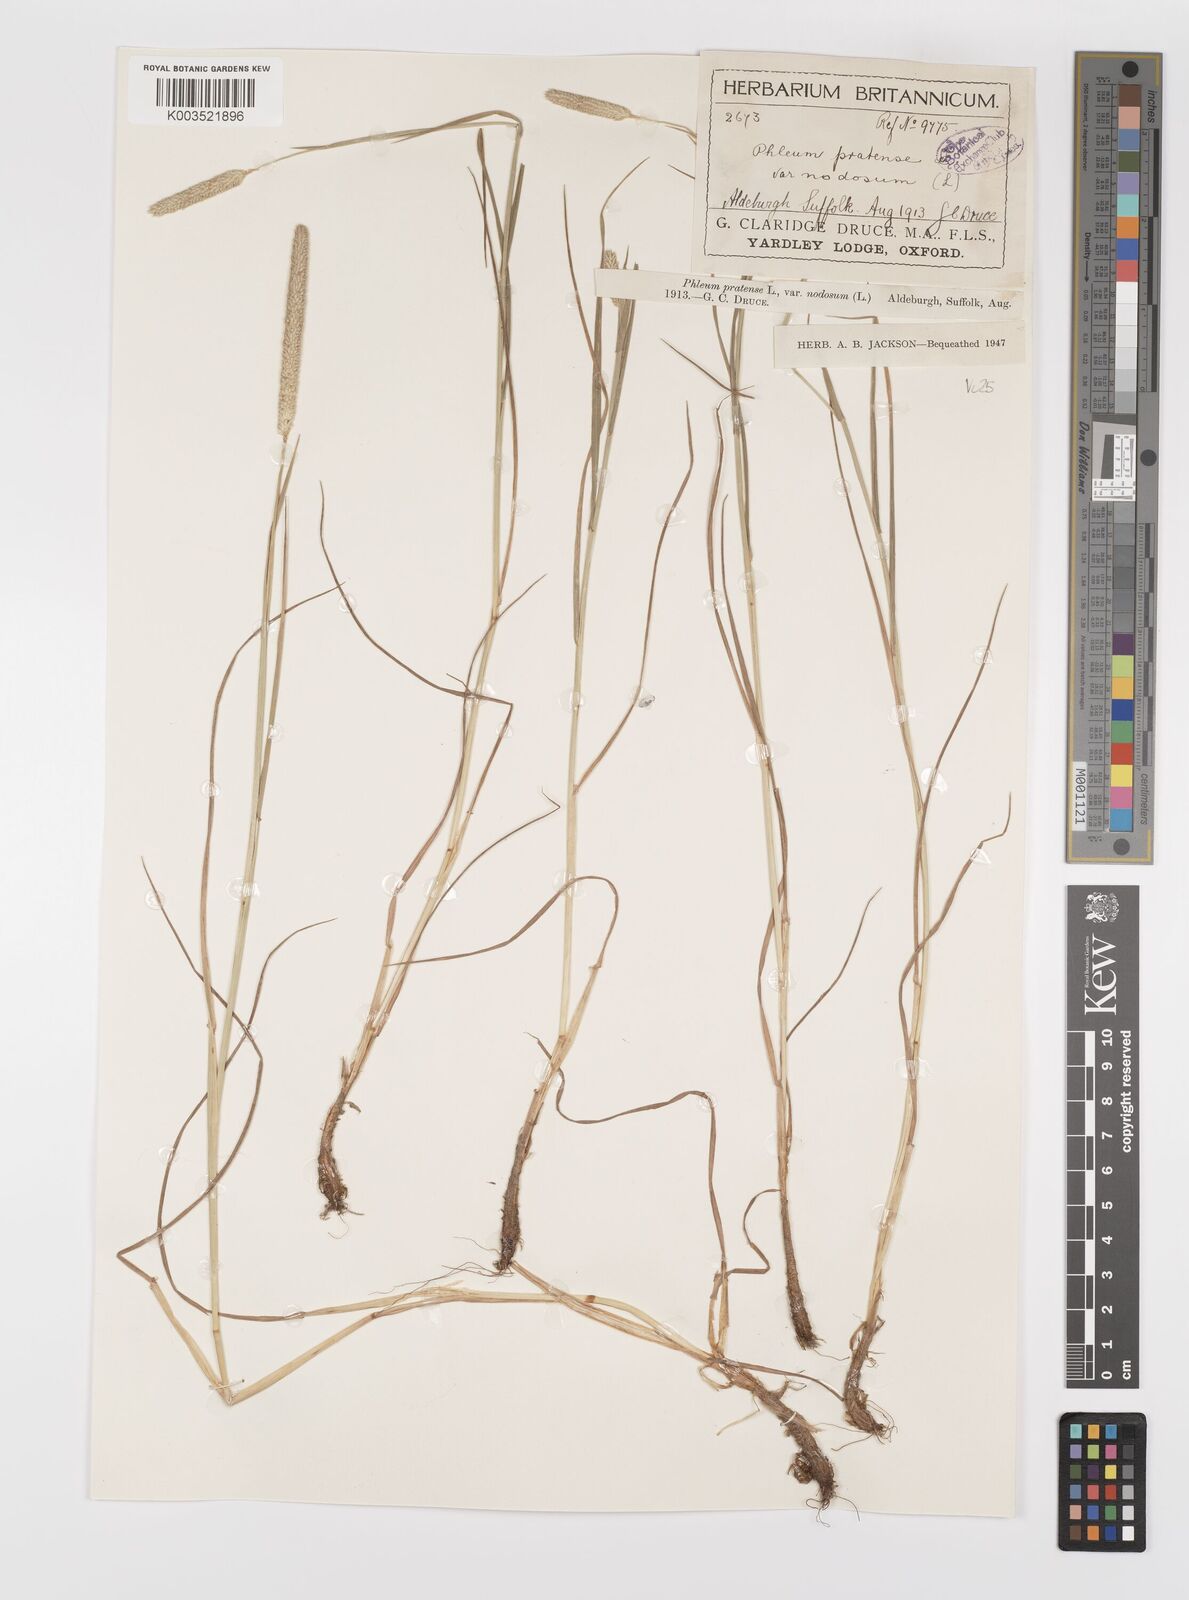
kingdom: Plantae
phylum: Tracheophyta
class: Liliopsida
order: Poales
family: Poaceae
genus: Phleum
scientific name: Phleum bertolonii
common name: Smaller cat's-tail
